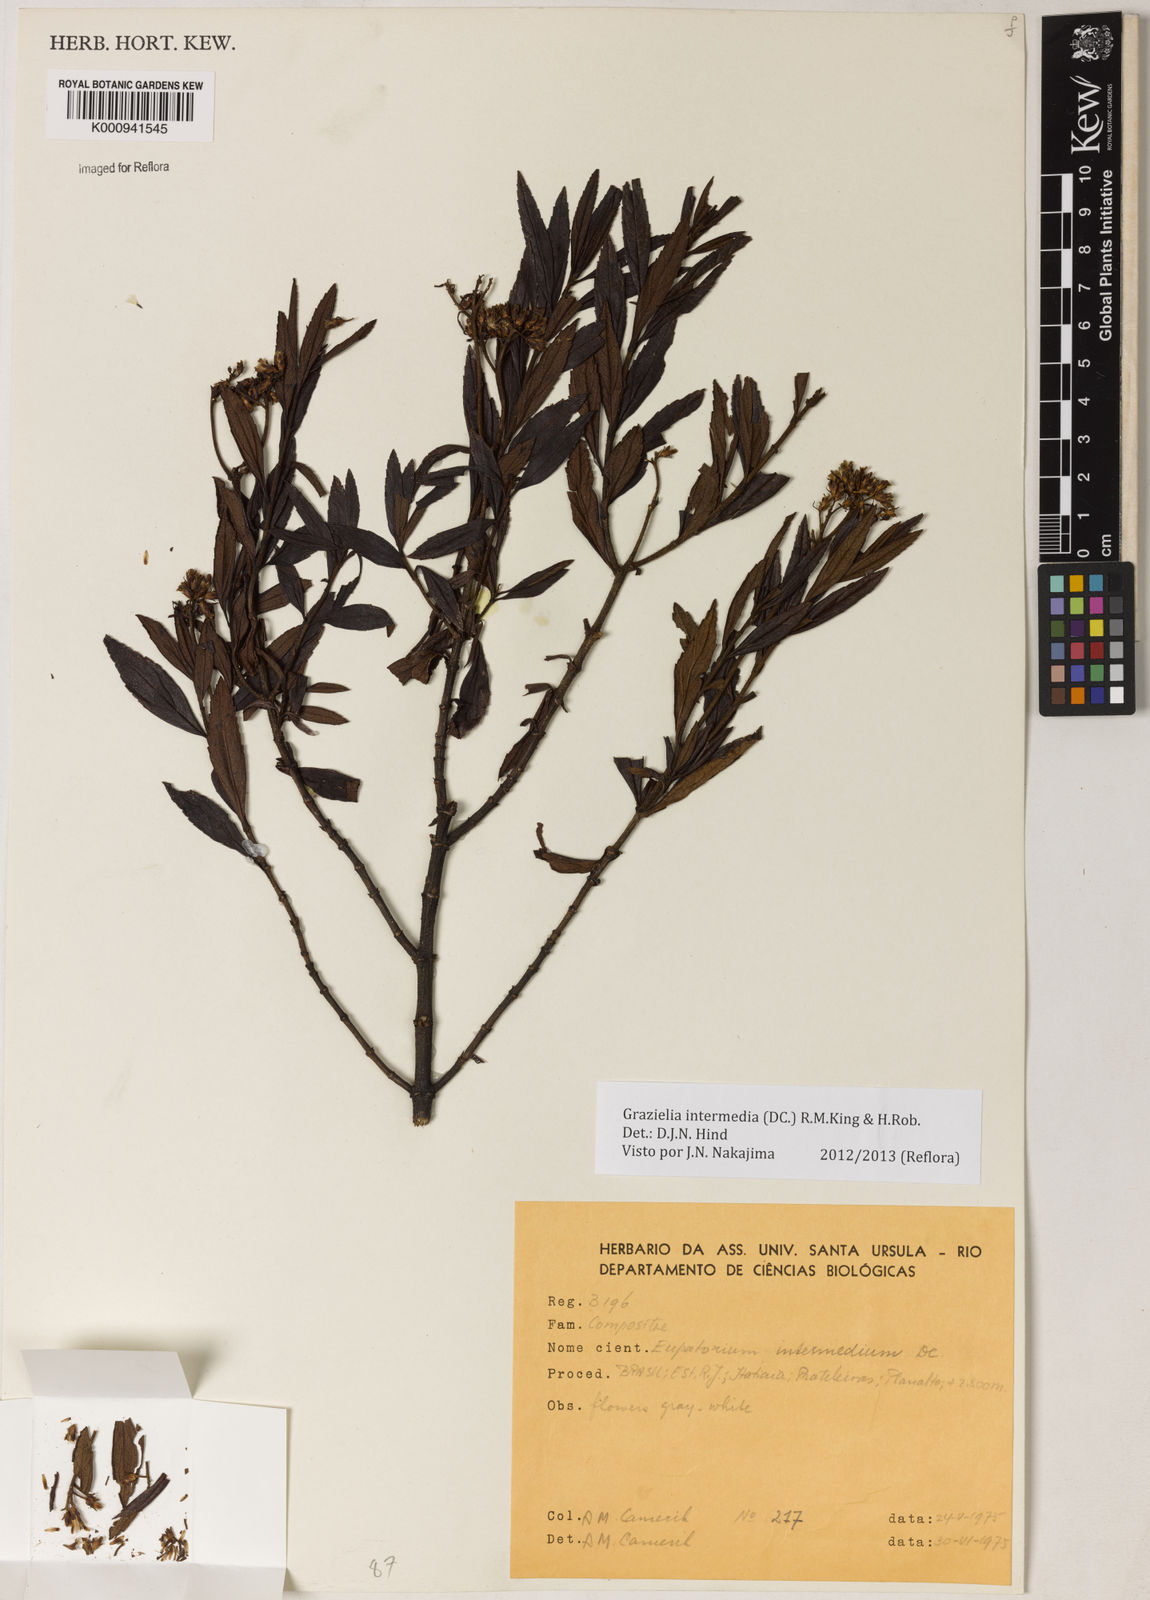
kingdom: Plantae
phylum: Tracheophyta
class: Magnoliopsida
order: Asterales
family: Asteraceae
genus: Grazielia
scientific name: Grazielia intermedia
